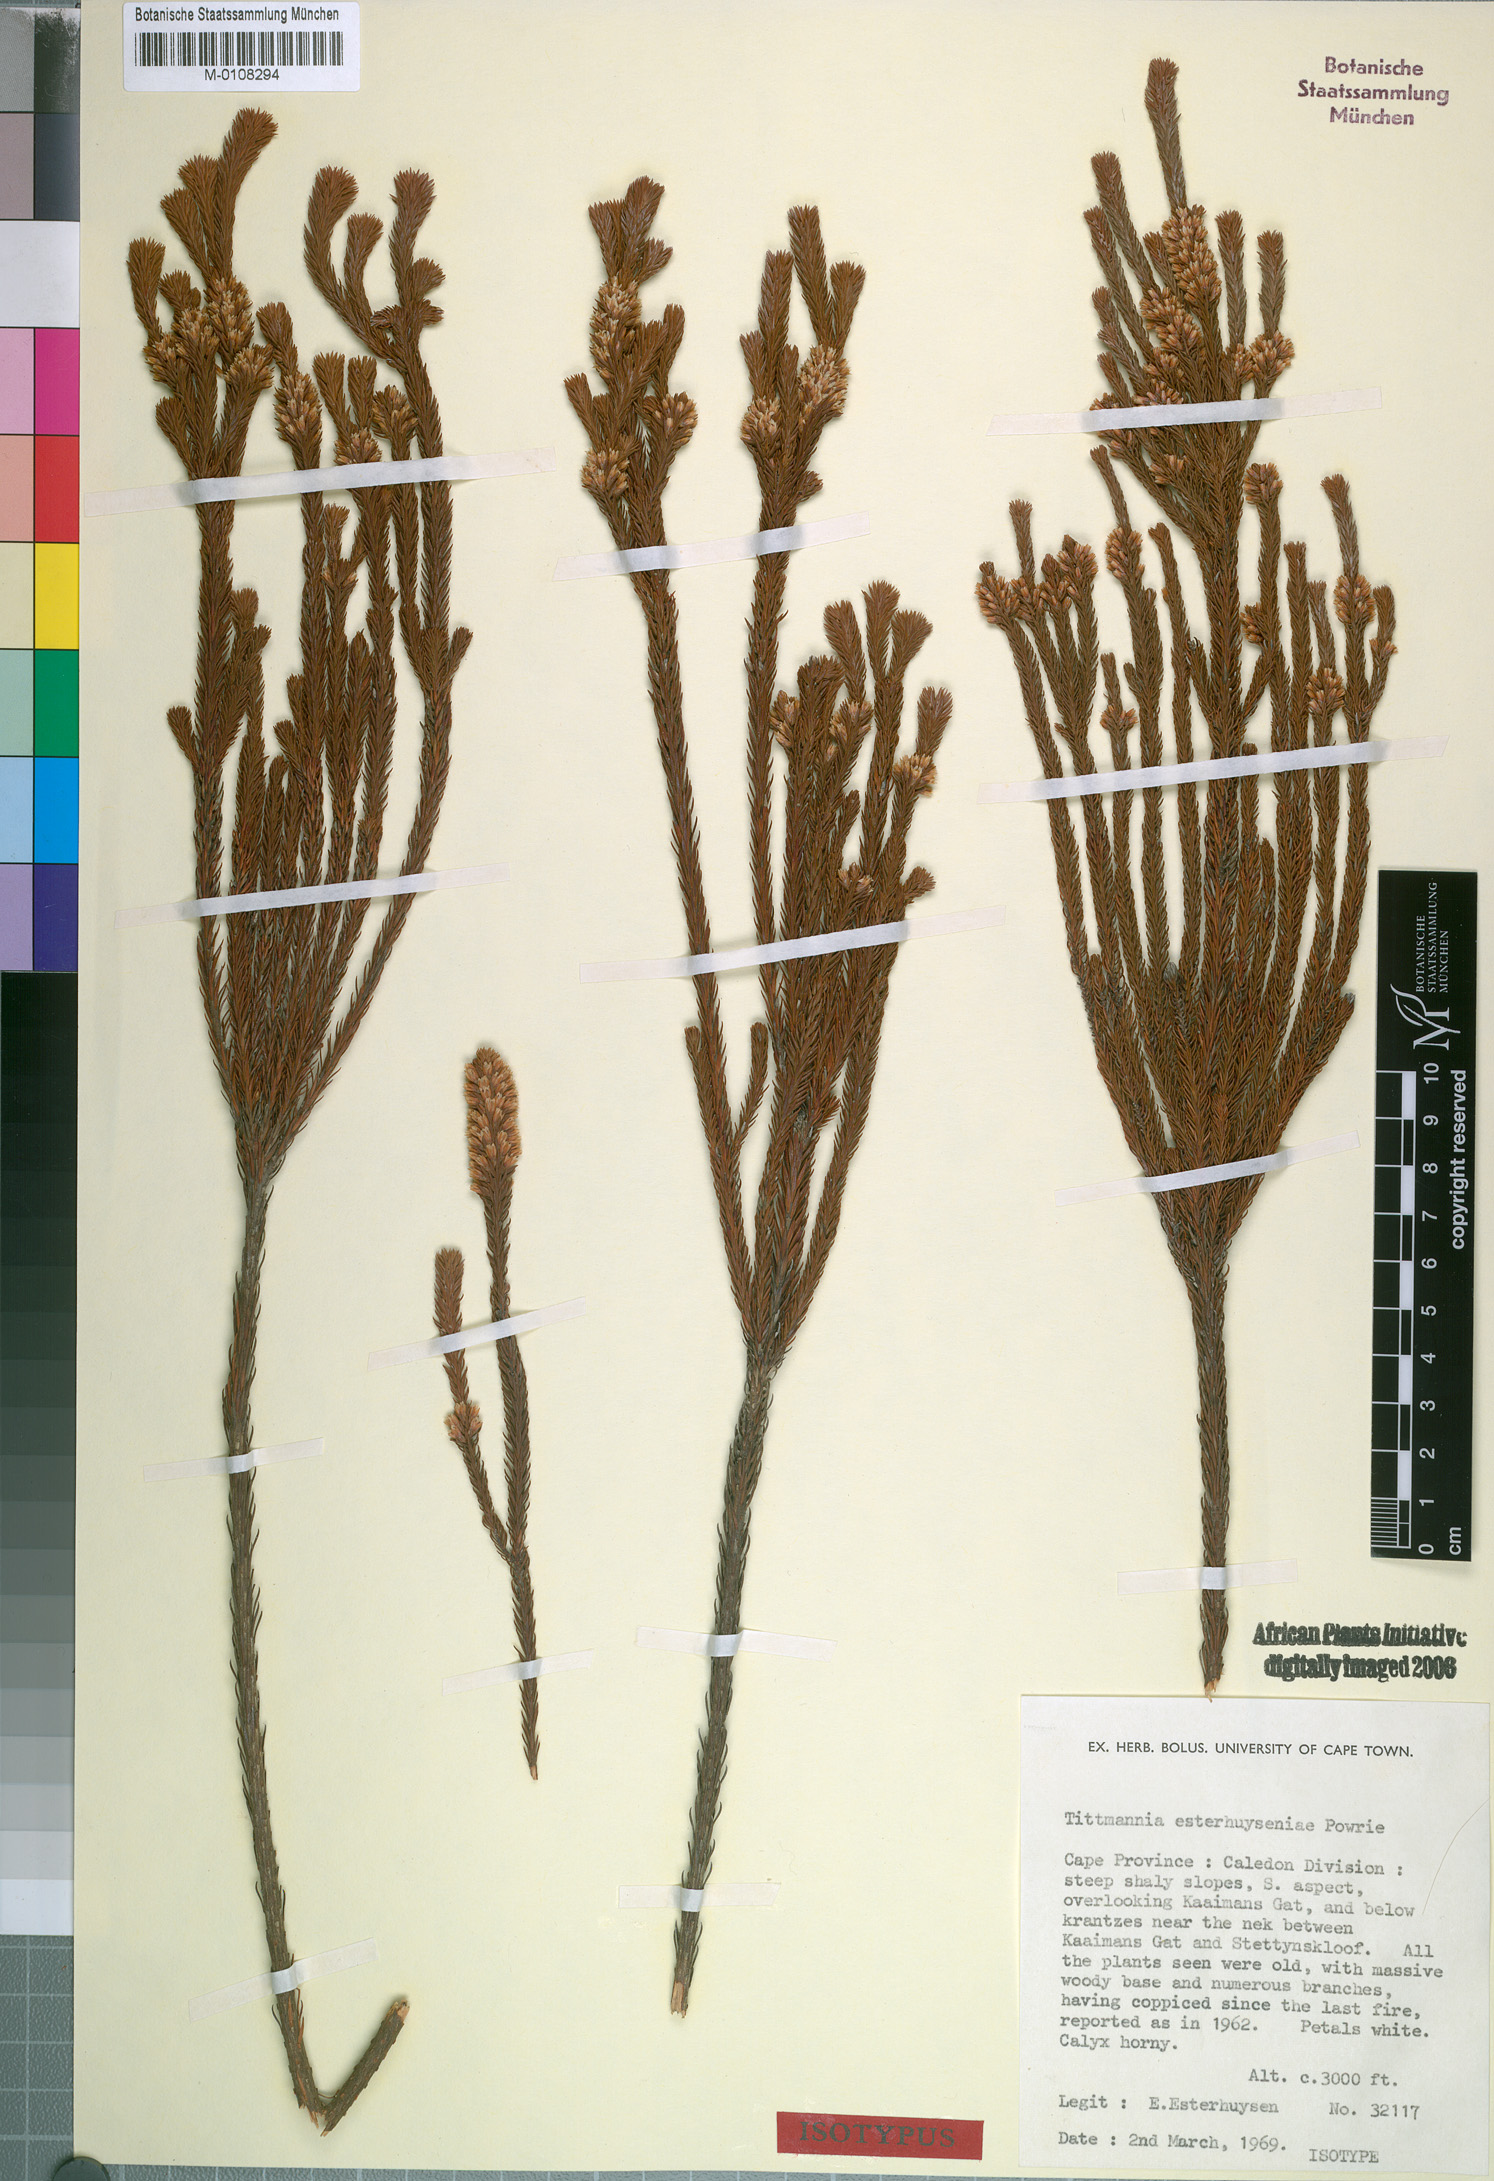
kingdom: Plantae
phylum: Tracheophyta
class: Magnoliopsida
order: Bruniales
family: Bruniaceae
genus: Audouinia
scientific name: Audouinia esterhuyseniae
